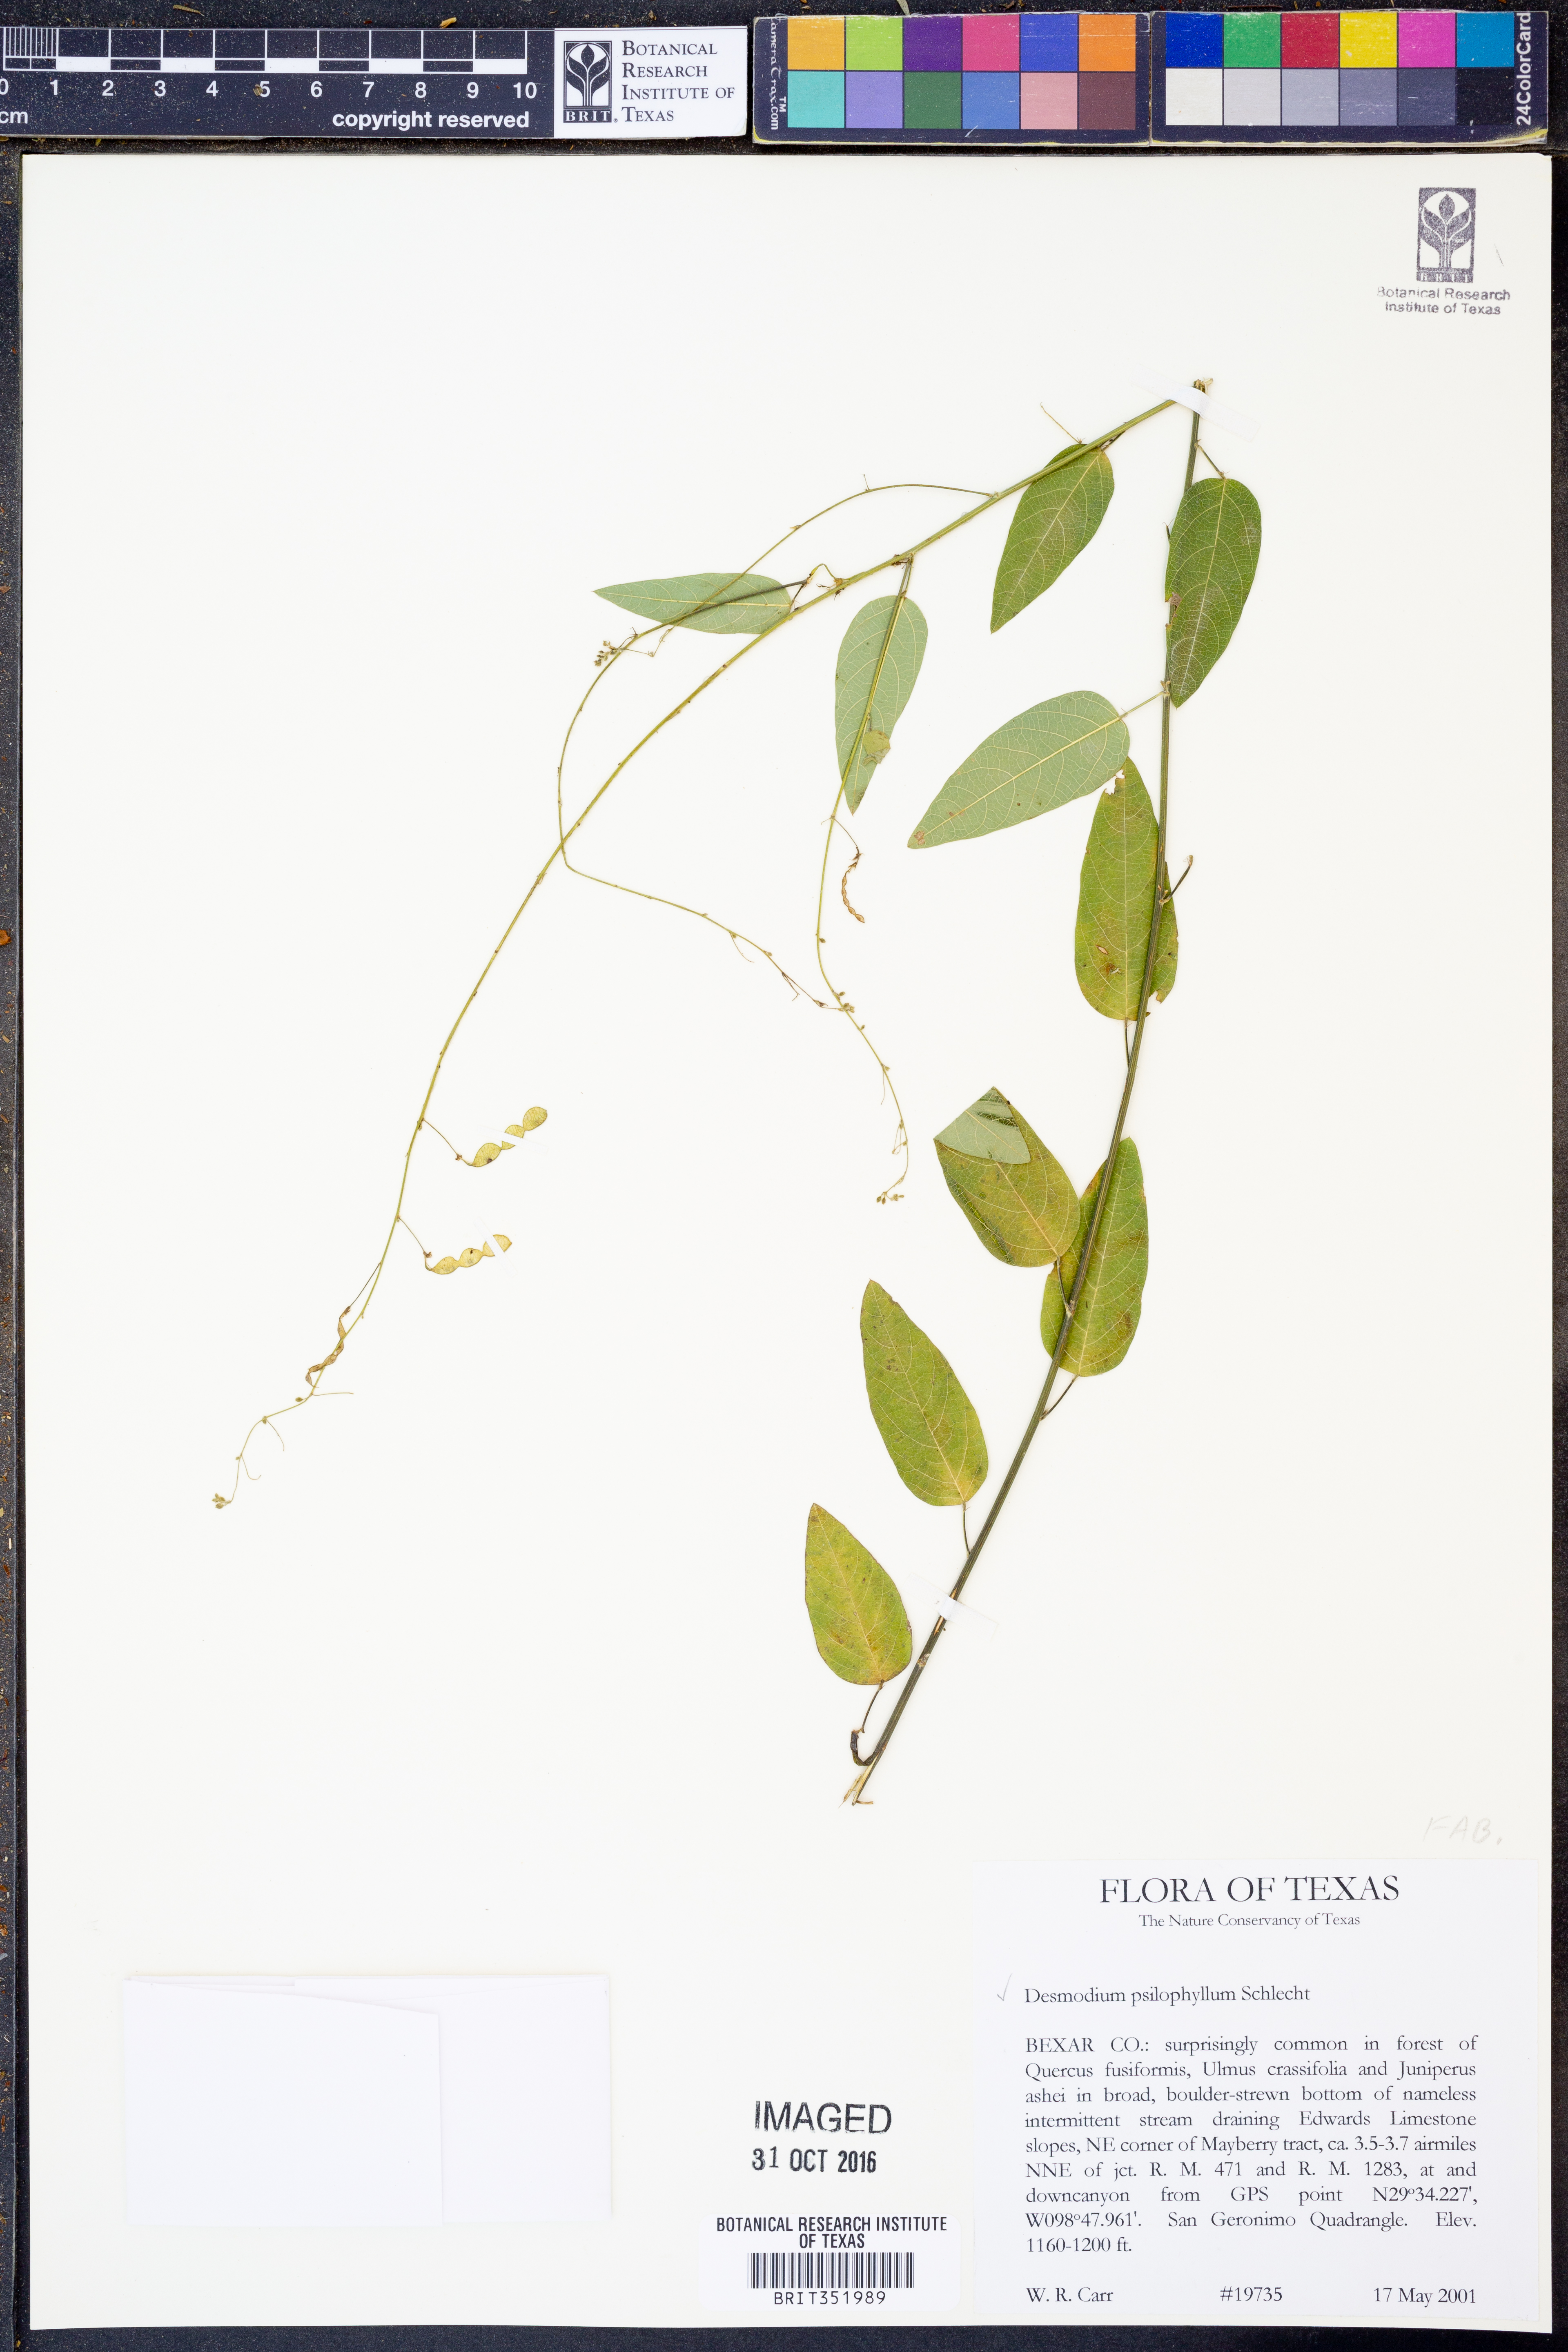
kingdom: Plantae
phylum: Tracheophyta
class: Magnoliopsida
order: Fabales
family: Fabaceae
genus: Desmodium
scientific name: Desmodium psilophyllum
